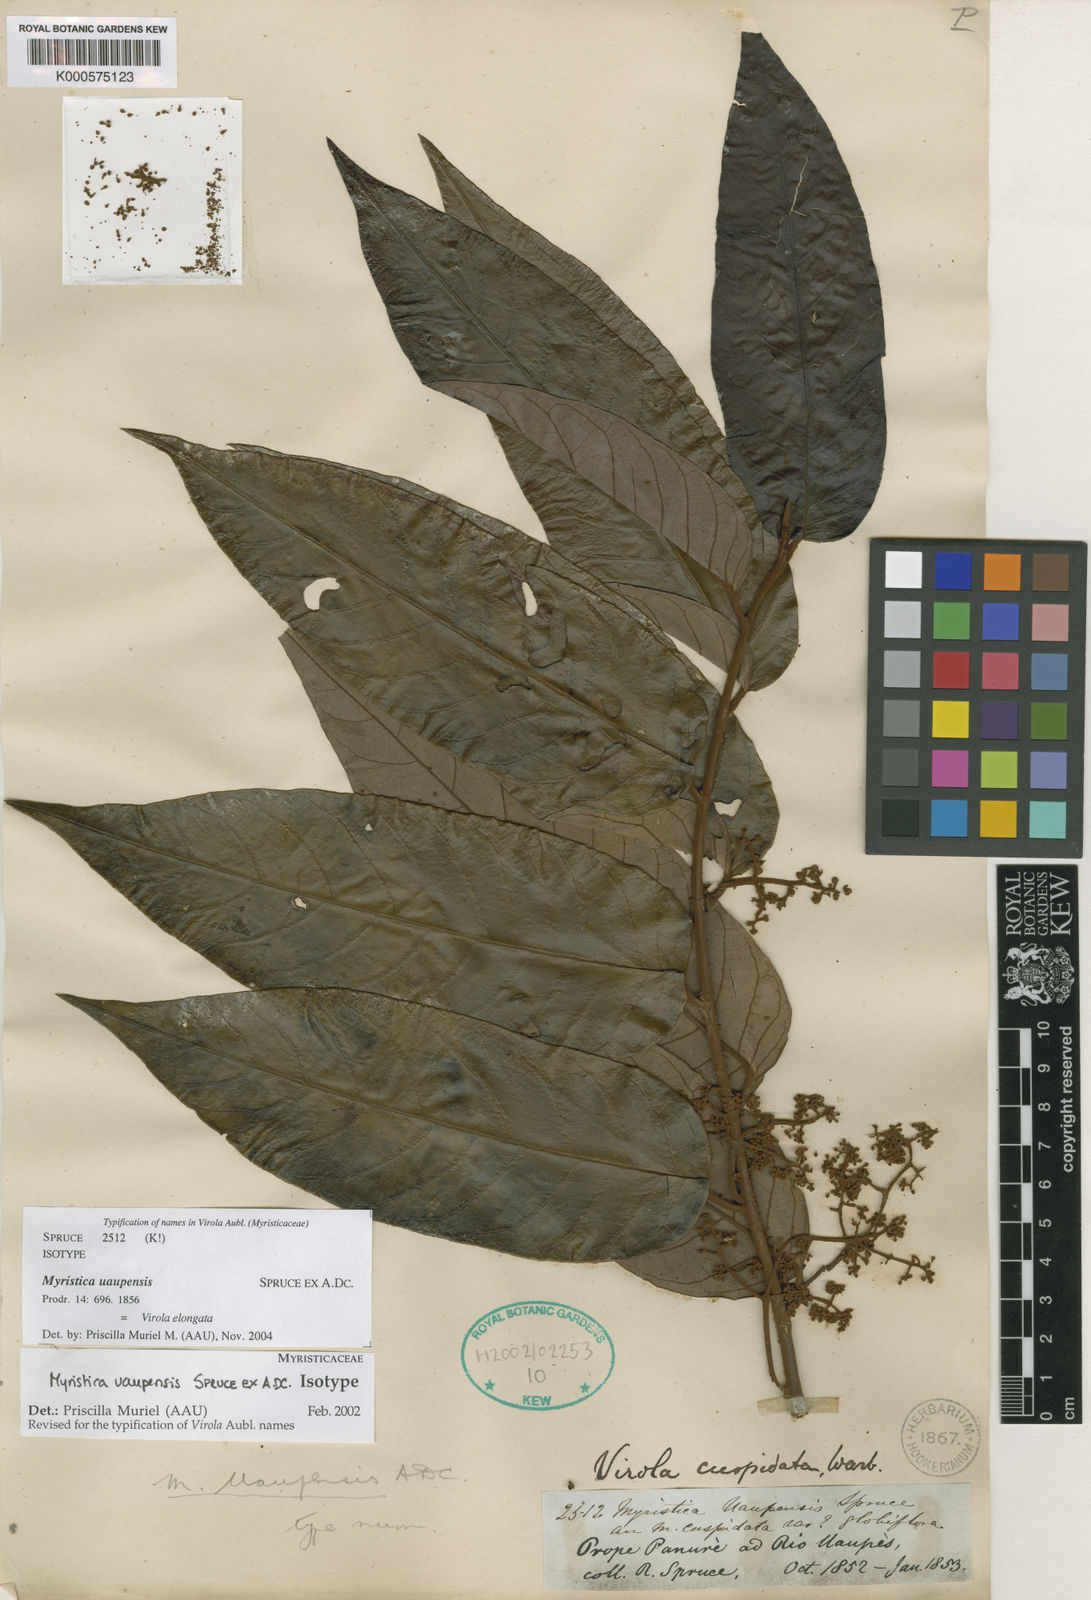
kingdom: Plantae
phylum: Tracheophyta
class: Magnoliopsida
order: Magnoliales
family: Myristicaceae
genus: Virola
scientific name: Virola elongata
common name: Sacred virola
